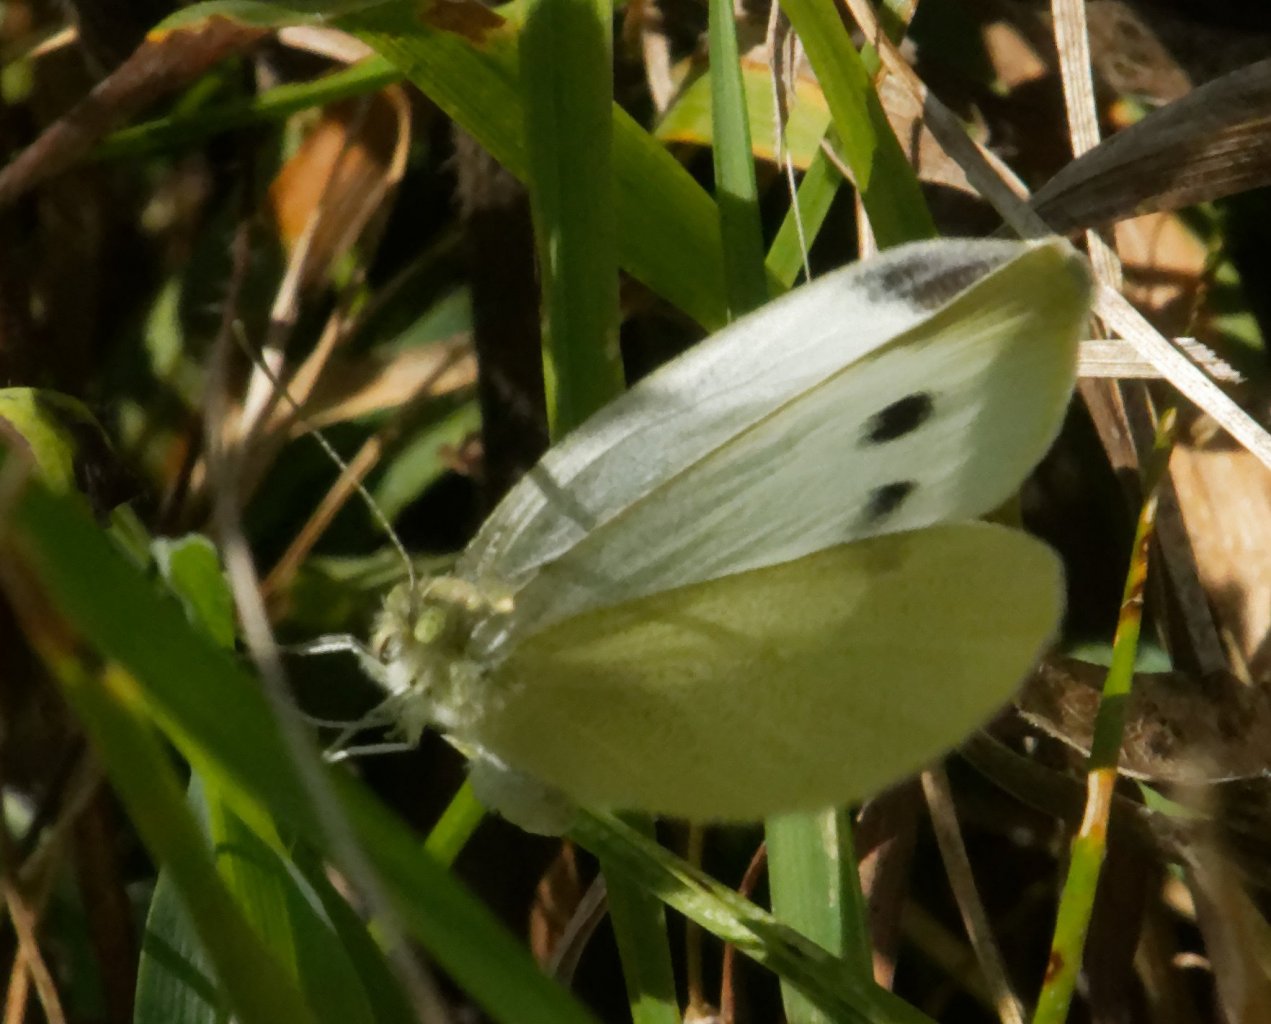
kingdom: Animalia
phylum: Arthropoda
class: Insecta
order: Lepidoptera
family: Pieridae
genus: Pieris
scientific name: Pieris rapae
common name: Cabbage White
